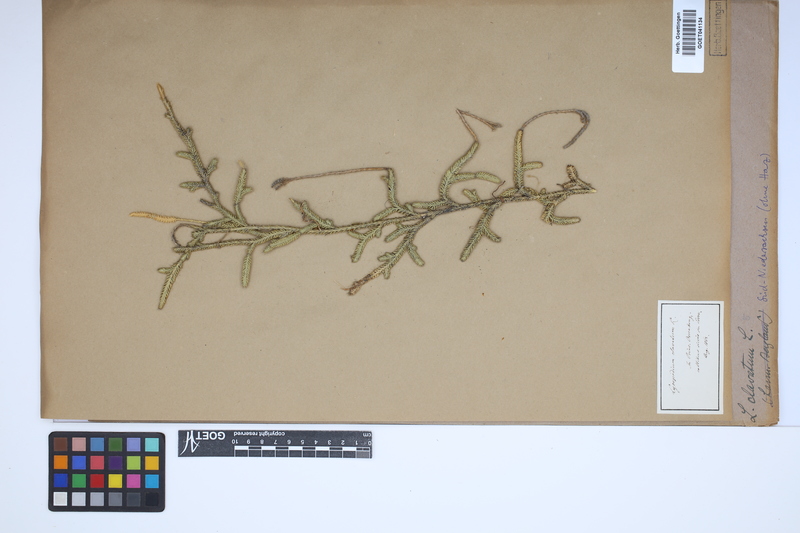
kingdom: Plantae
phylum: Tracheophyta
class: Lycopodiopsida
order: Lycopodiales
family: Lycopodiaceae
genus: Lycopodium
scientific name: Lycopodium clavatum
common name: Stag's-horn clubmoss
